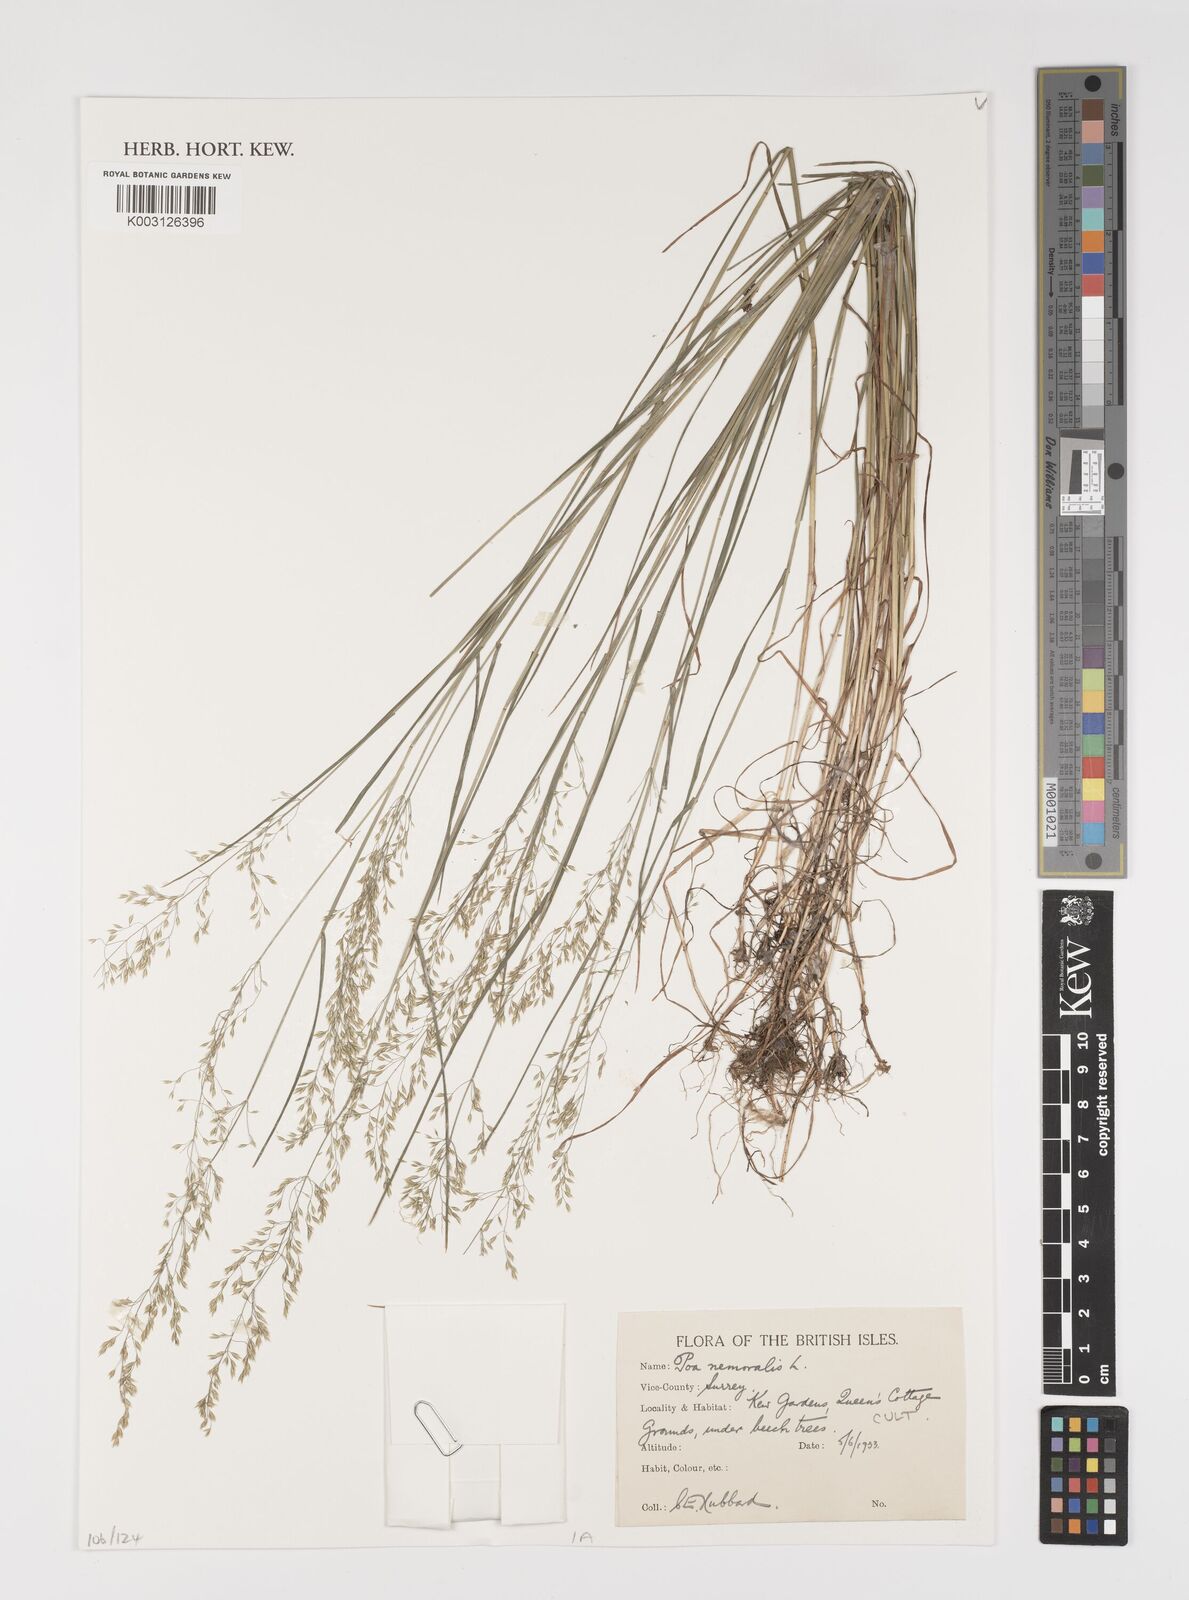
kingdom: Plantae
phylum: Tracheophyta
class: Liliopsida
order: Poales
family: Poaceae
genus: Poa
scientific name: Poa nemoralis
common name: Wood bluegrass
